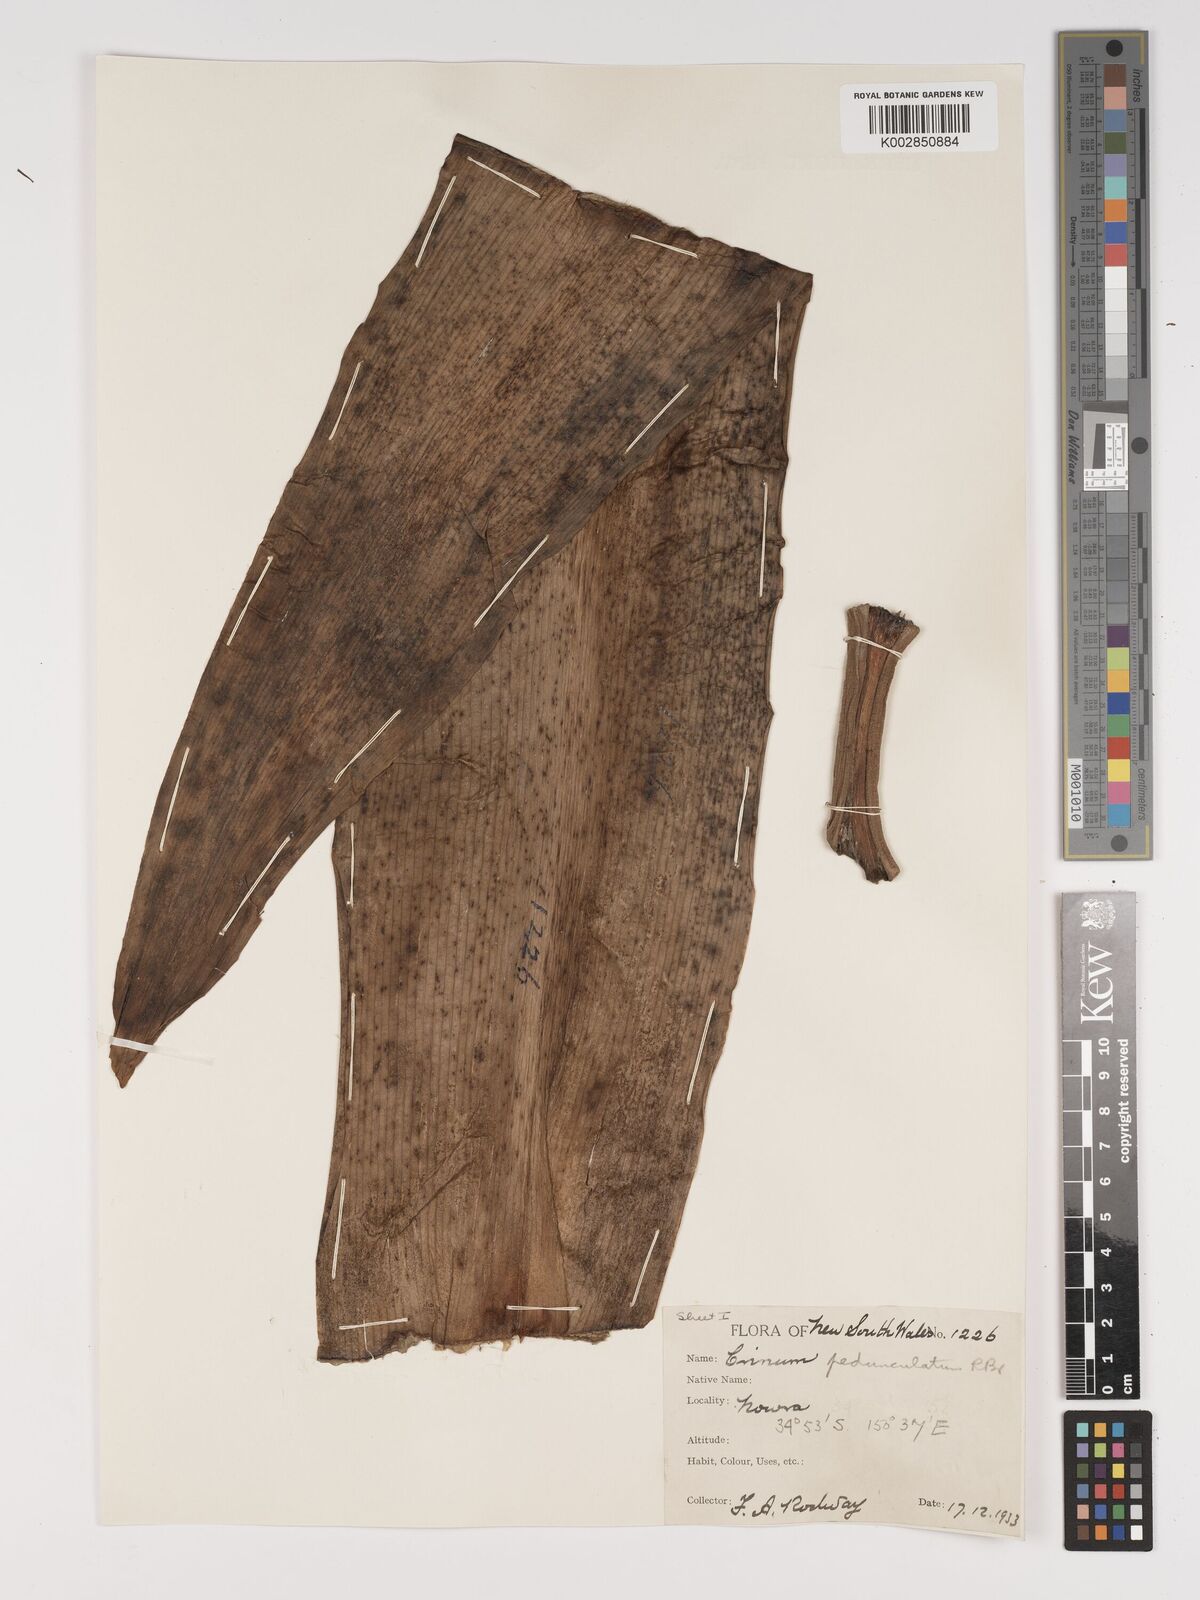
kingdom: Plantae
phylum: Tracheophyta
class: Liliopsida
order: Asparagales
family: Amaryllidaceae
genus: Crinum
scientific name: Crinum asiaticum
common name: Poisonbulb
